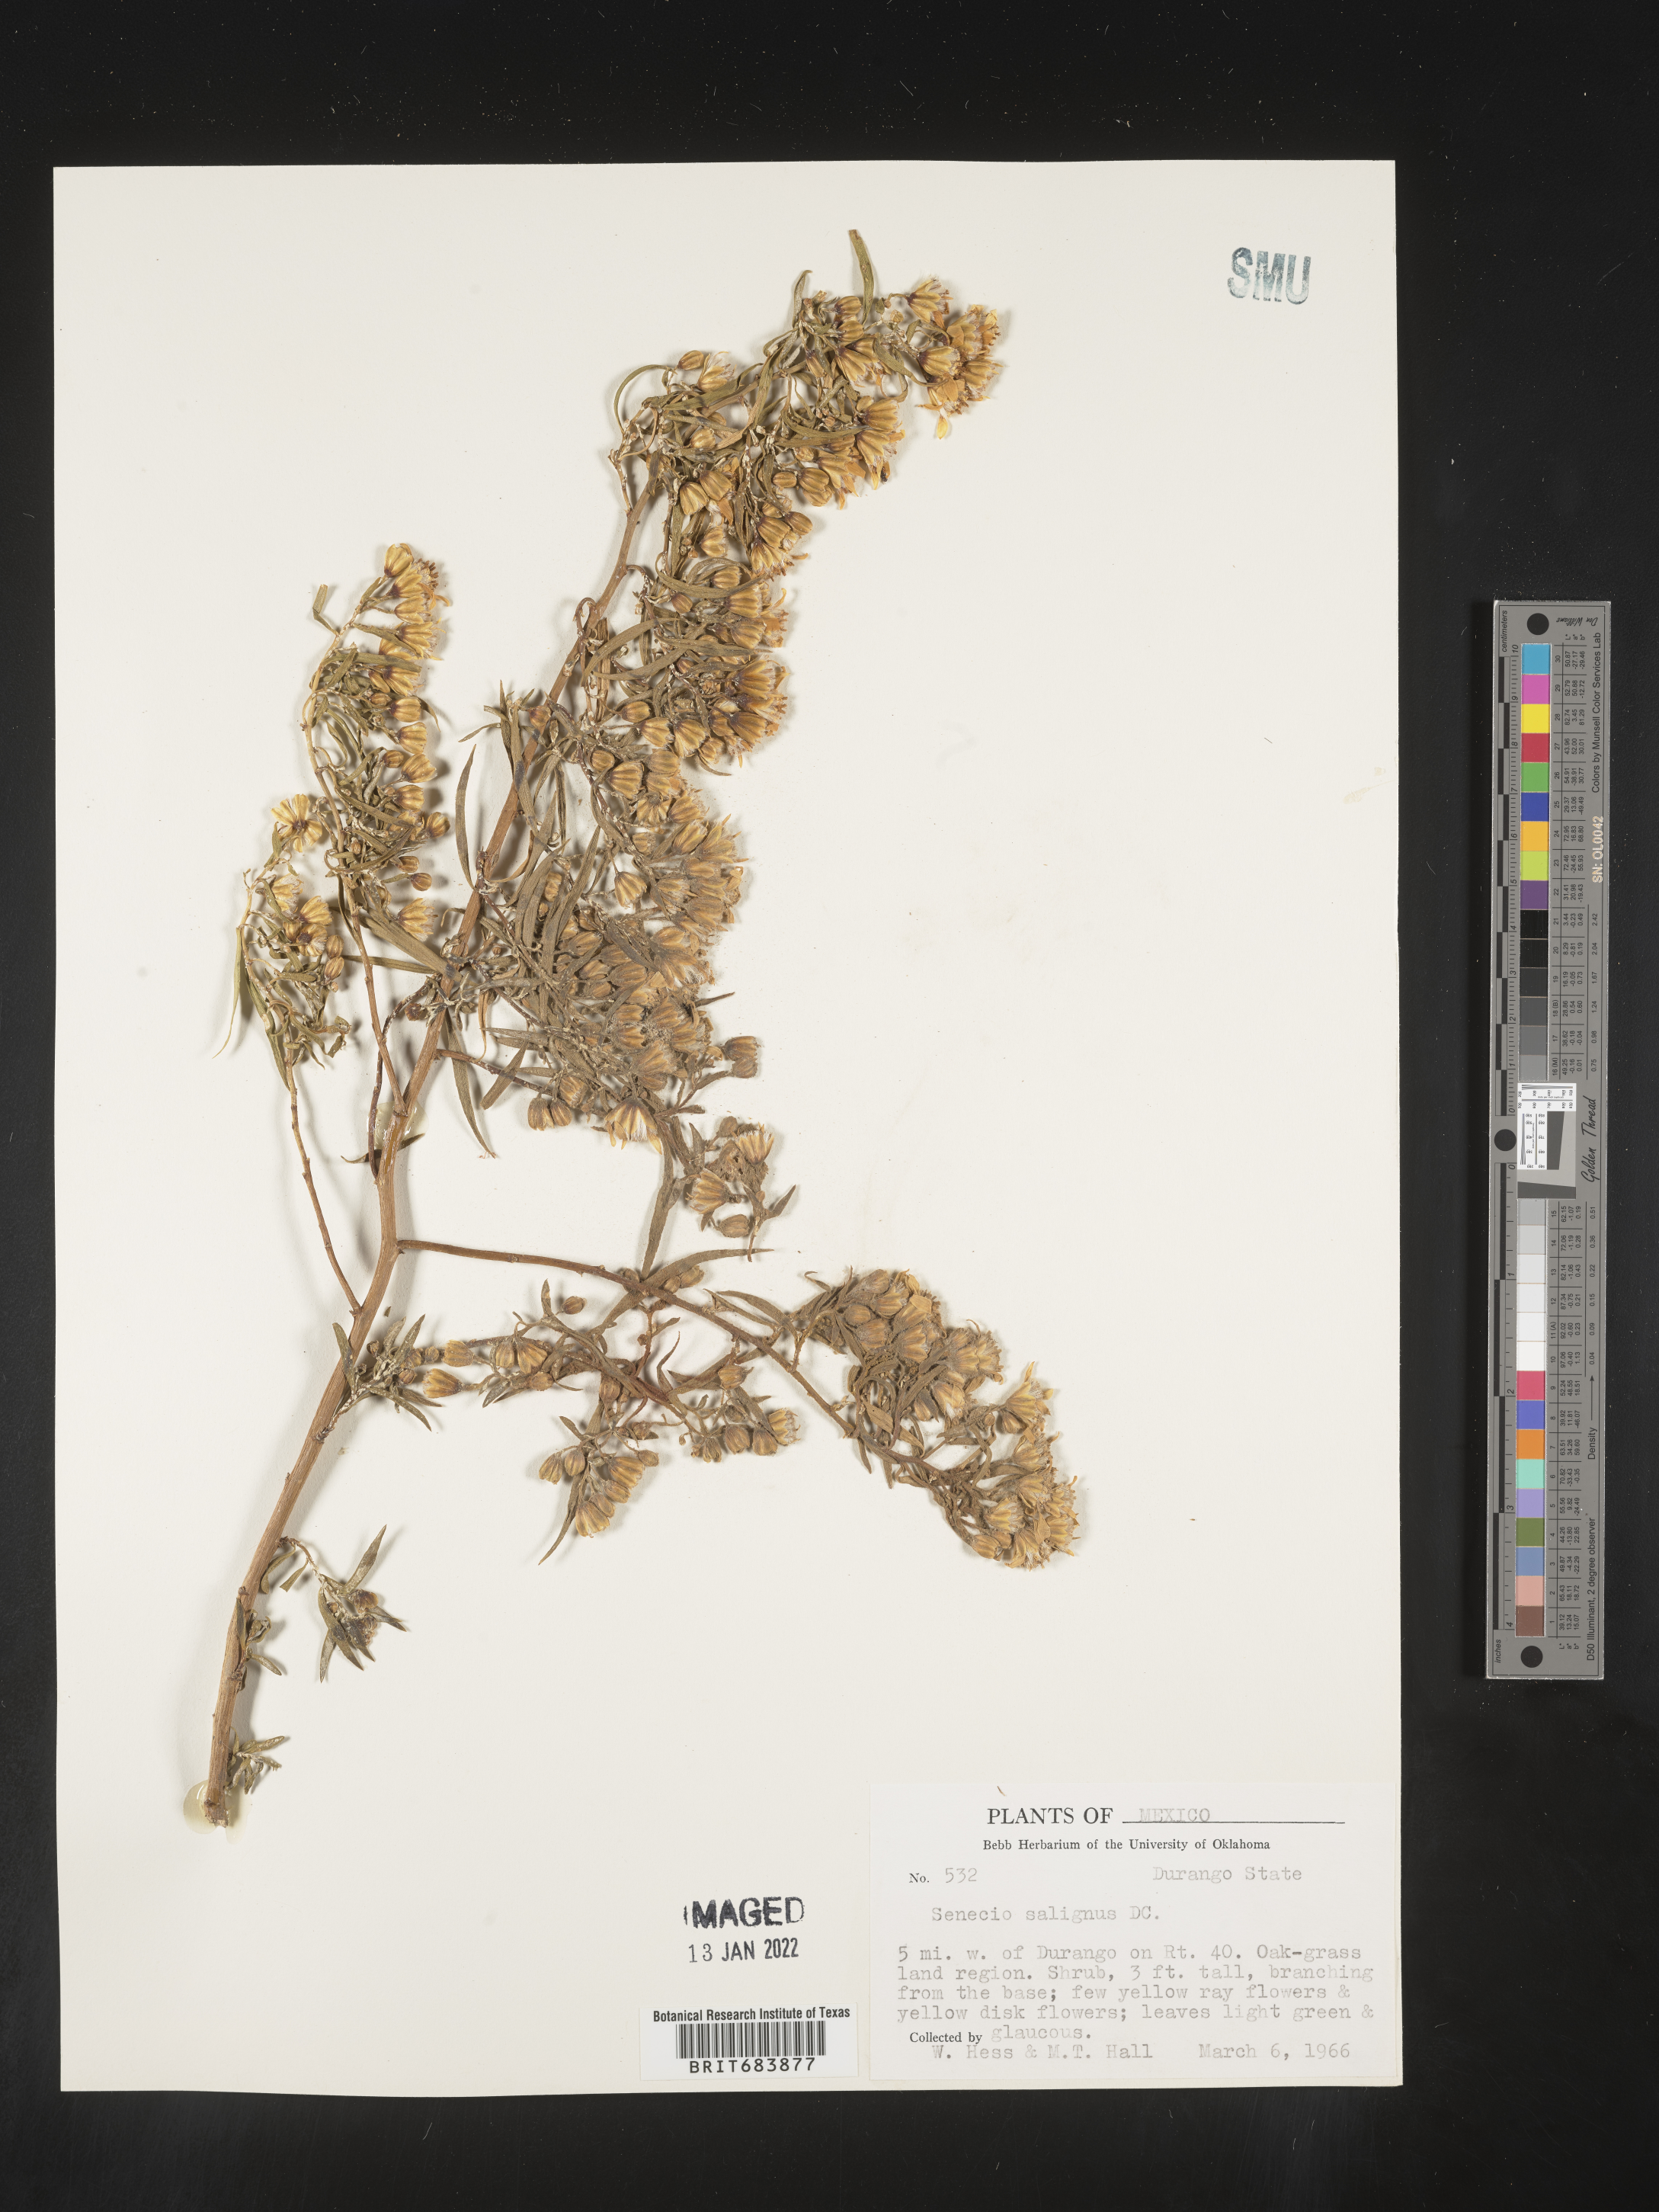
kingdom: Plantae
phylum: Tracheophyta
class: Magnoliopsida
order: Asterales
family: Asteraceae
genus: Barkleyanthus
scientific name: Barkleyanthus
